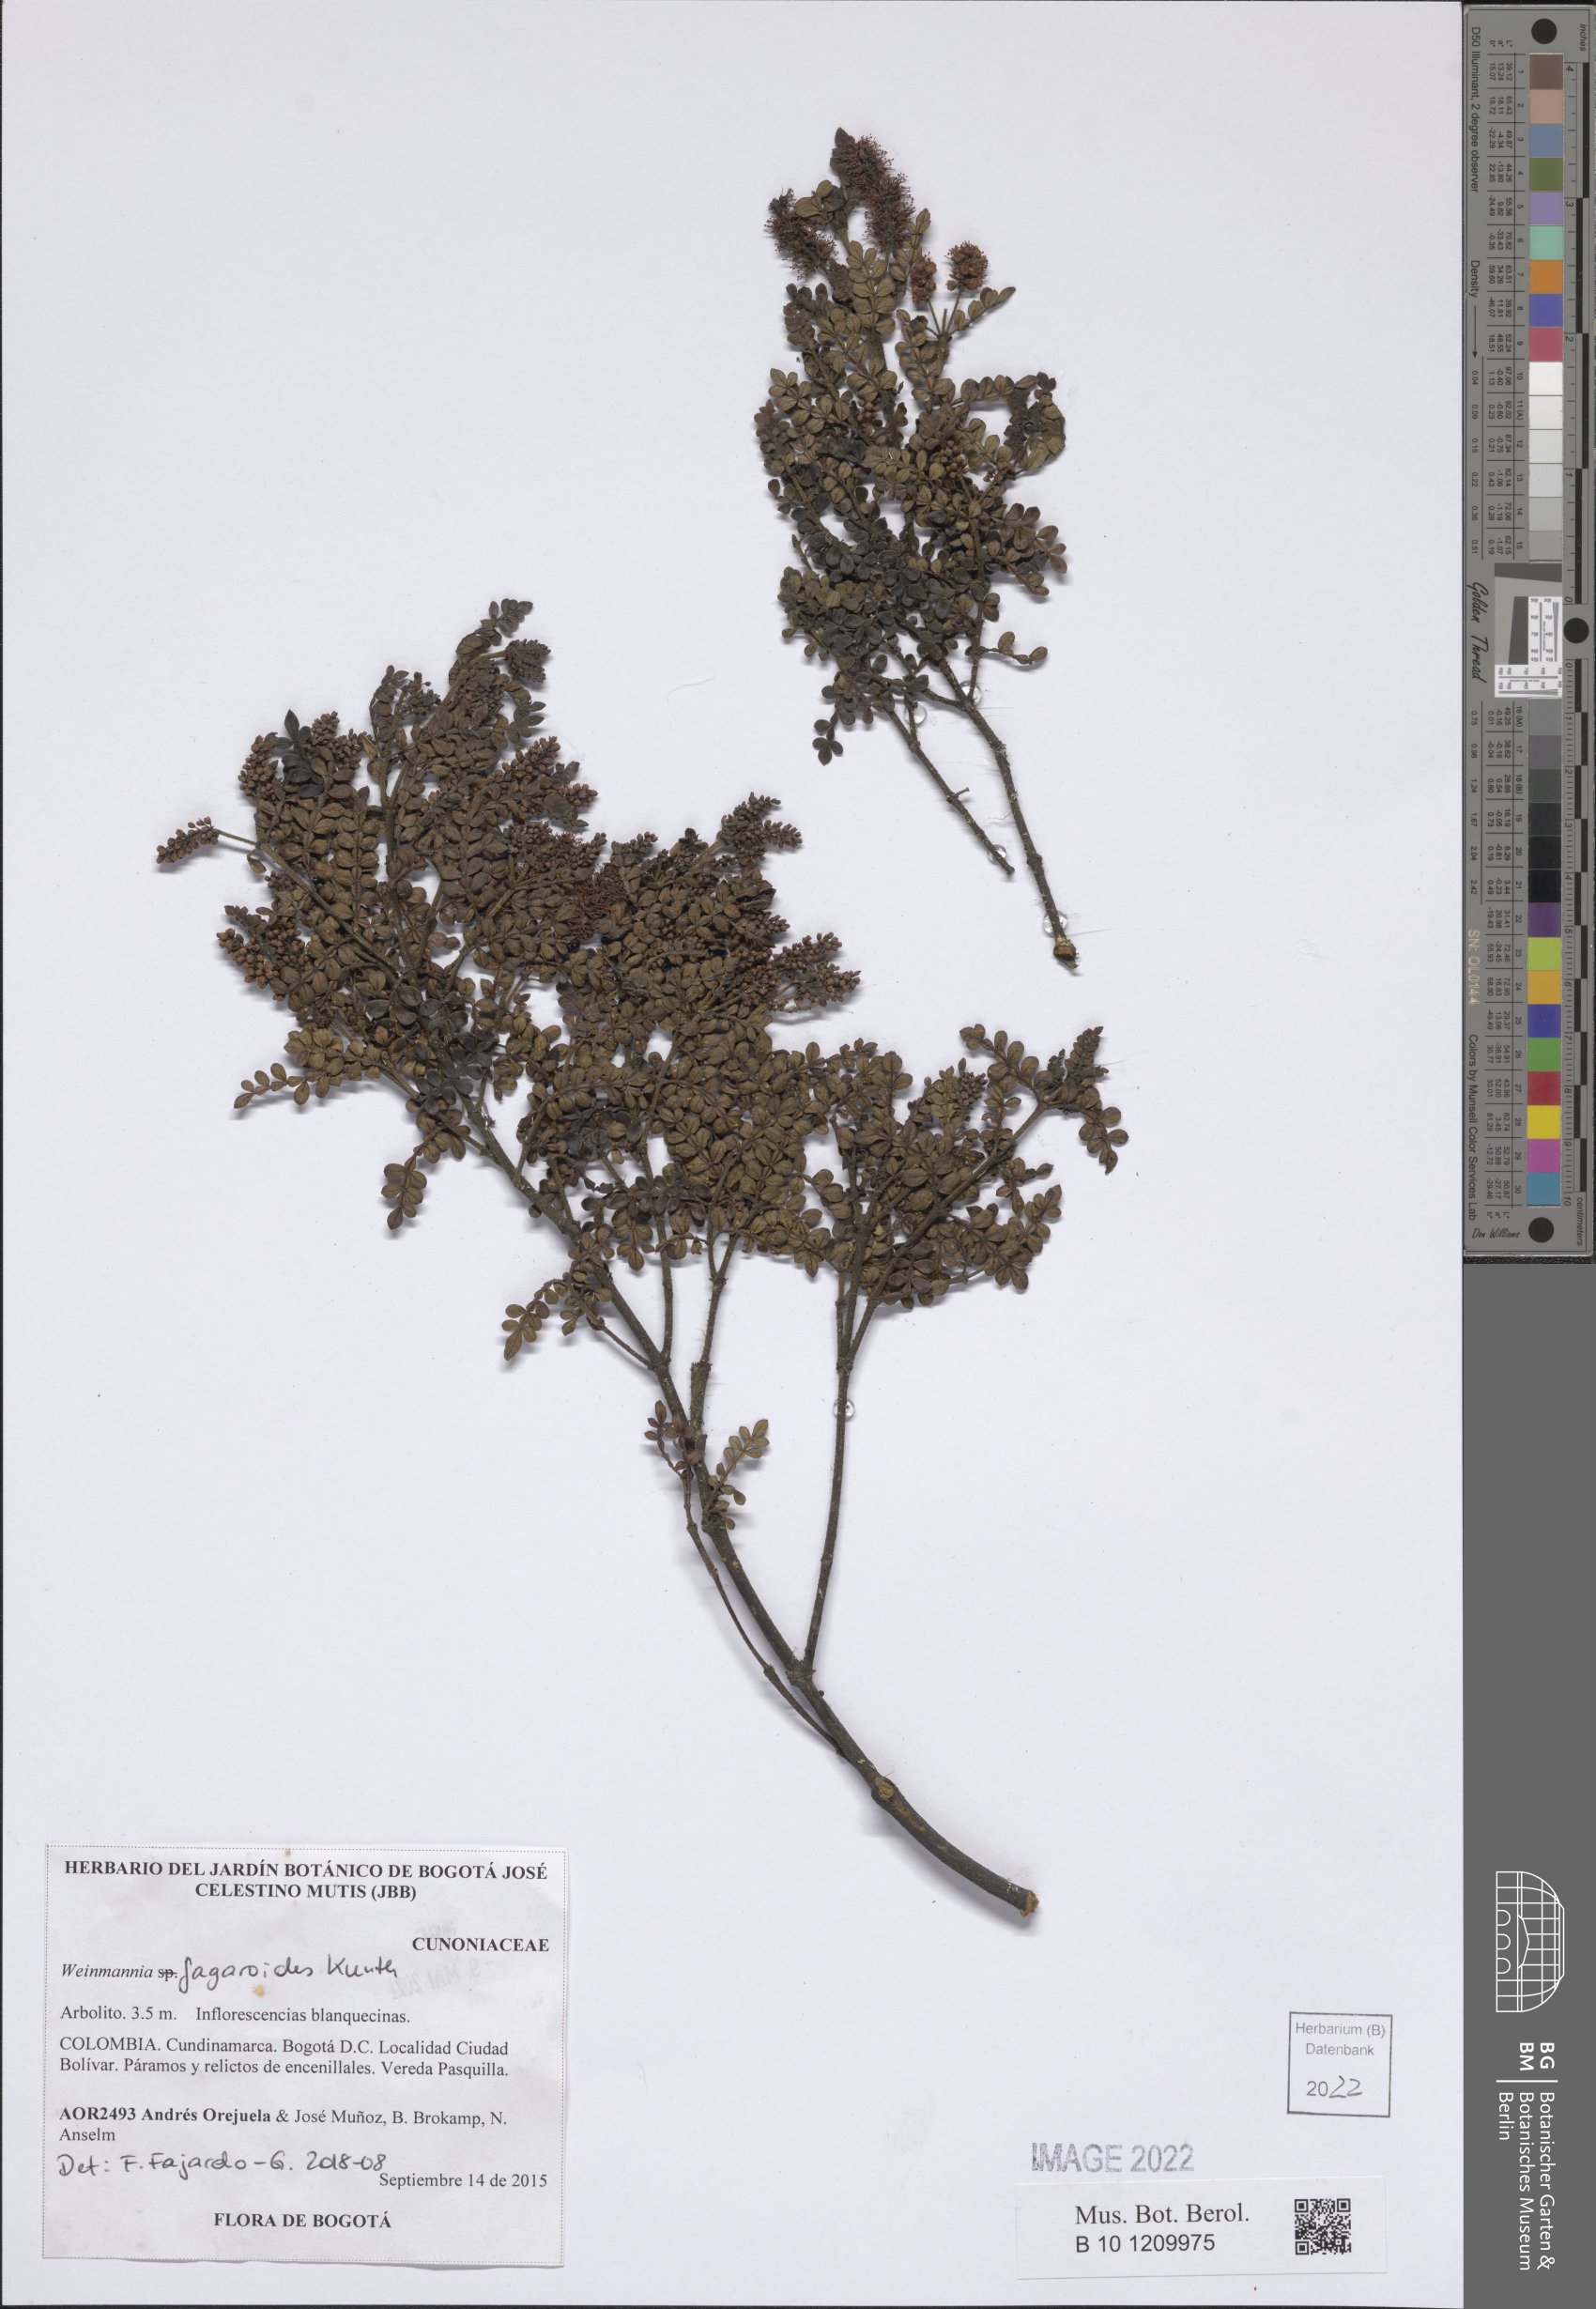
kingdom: Plantae
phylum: Tracheophyta
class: Magnoliopsida
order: Oxalidales
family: Cunoniaceae
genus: Weinmannia
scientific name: Weinmannia fagaroides
